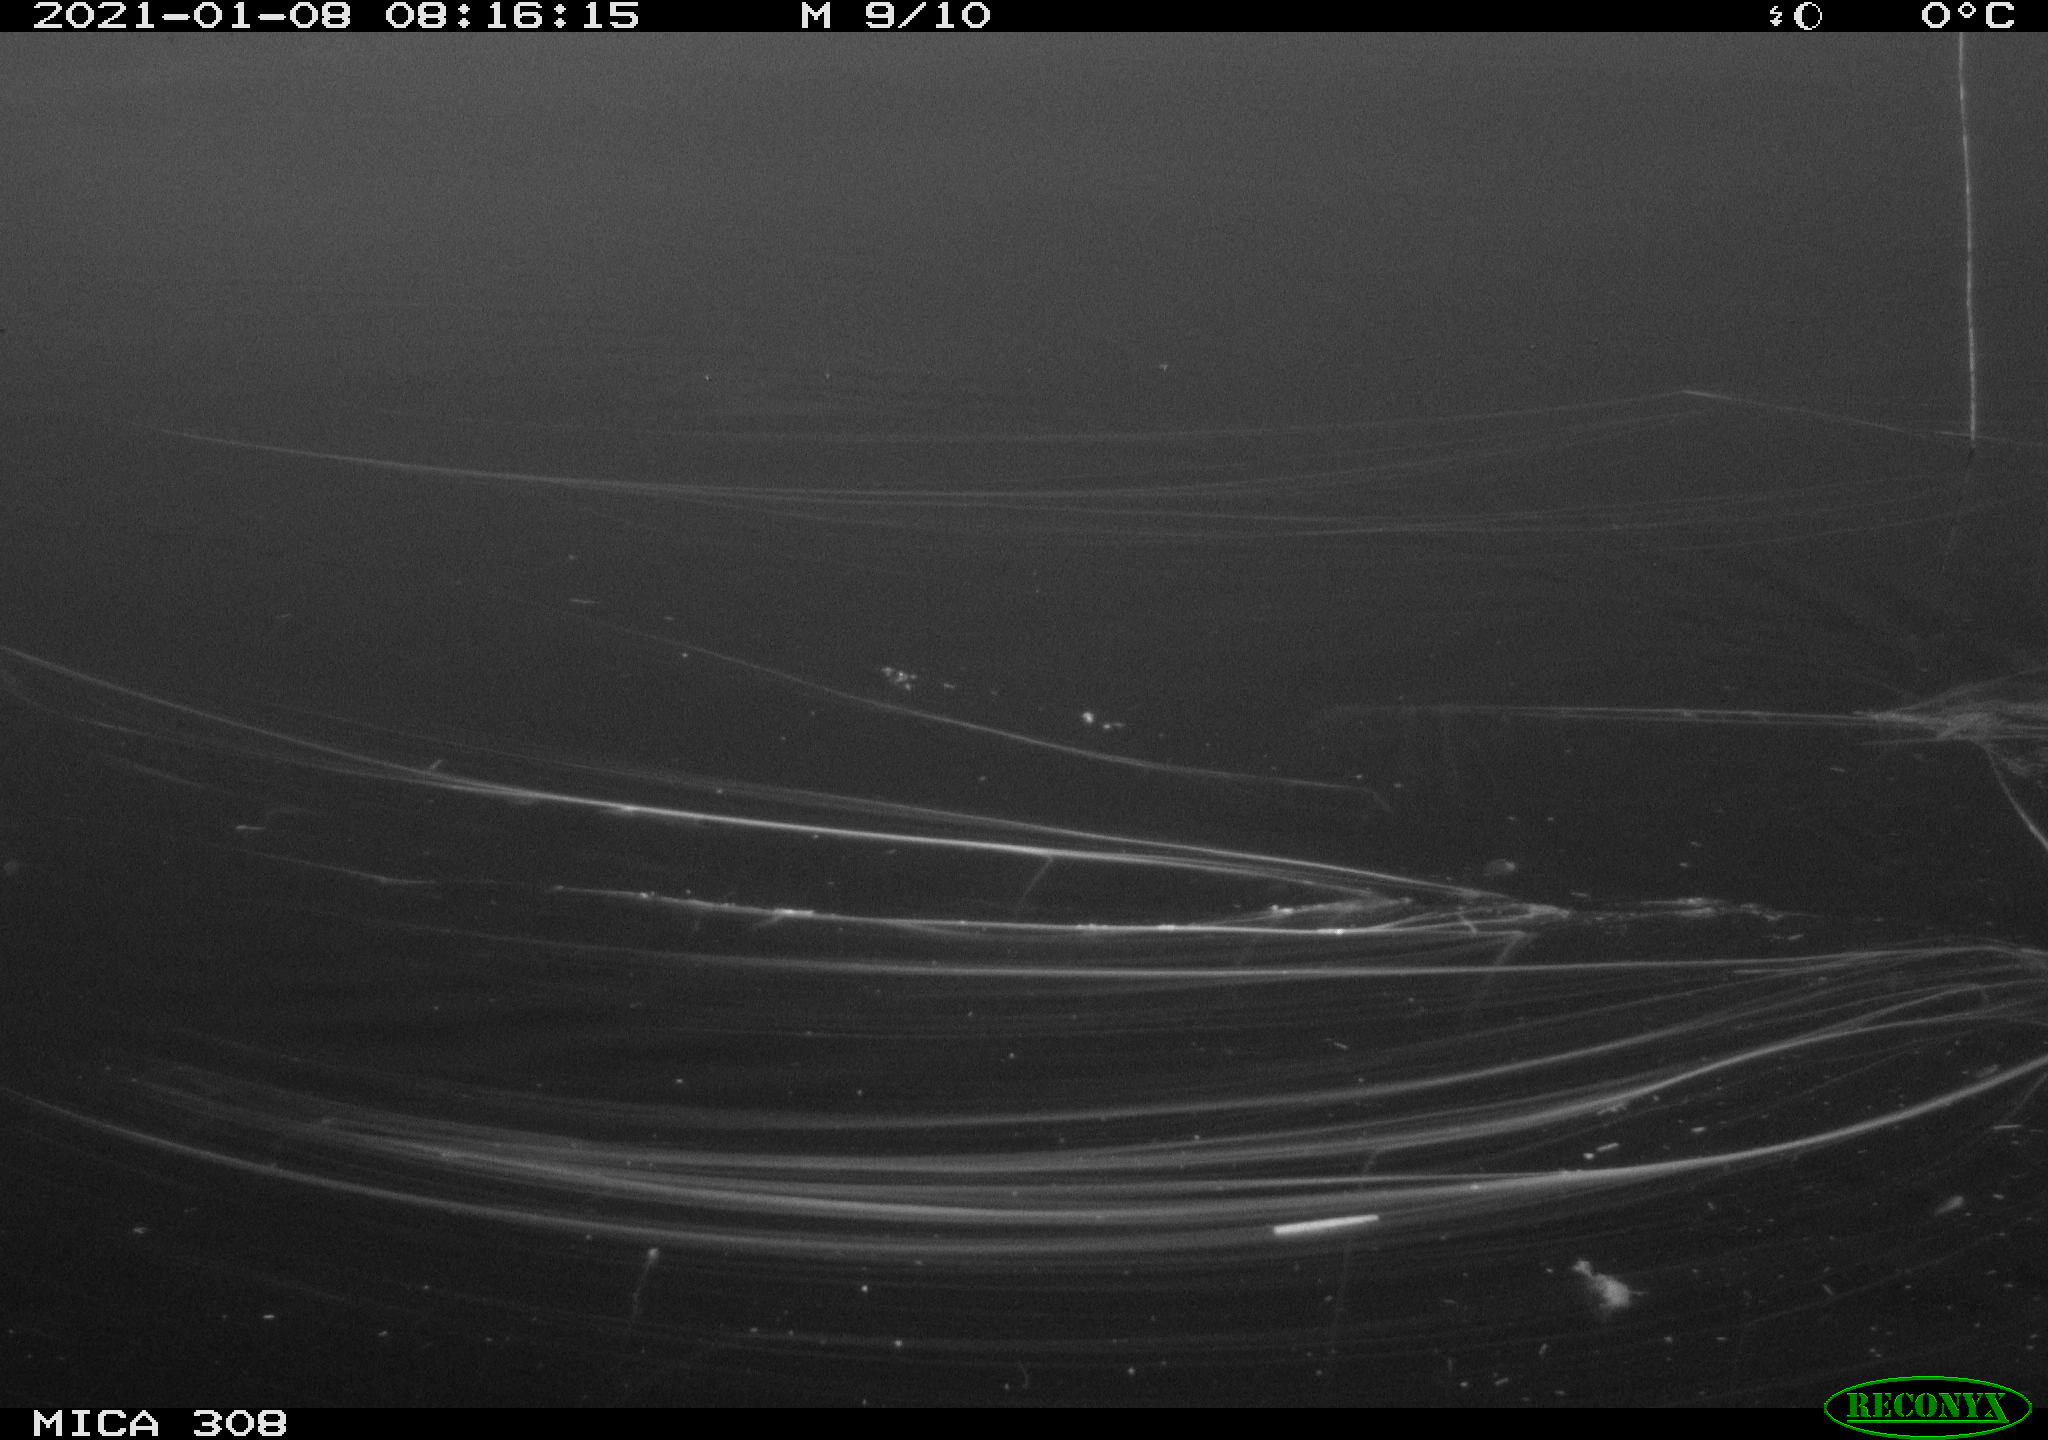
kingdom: Animalia
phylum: Chordata
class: Mammalia
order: Rodentia
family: Muridae
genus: Rattus
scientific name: Rattus norvegicus
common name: Brown rat
